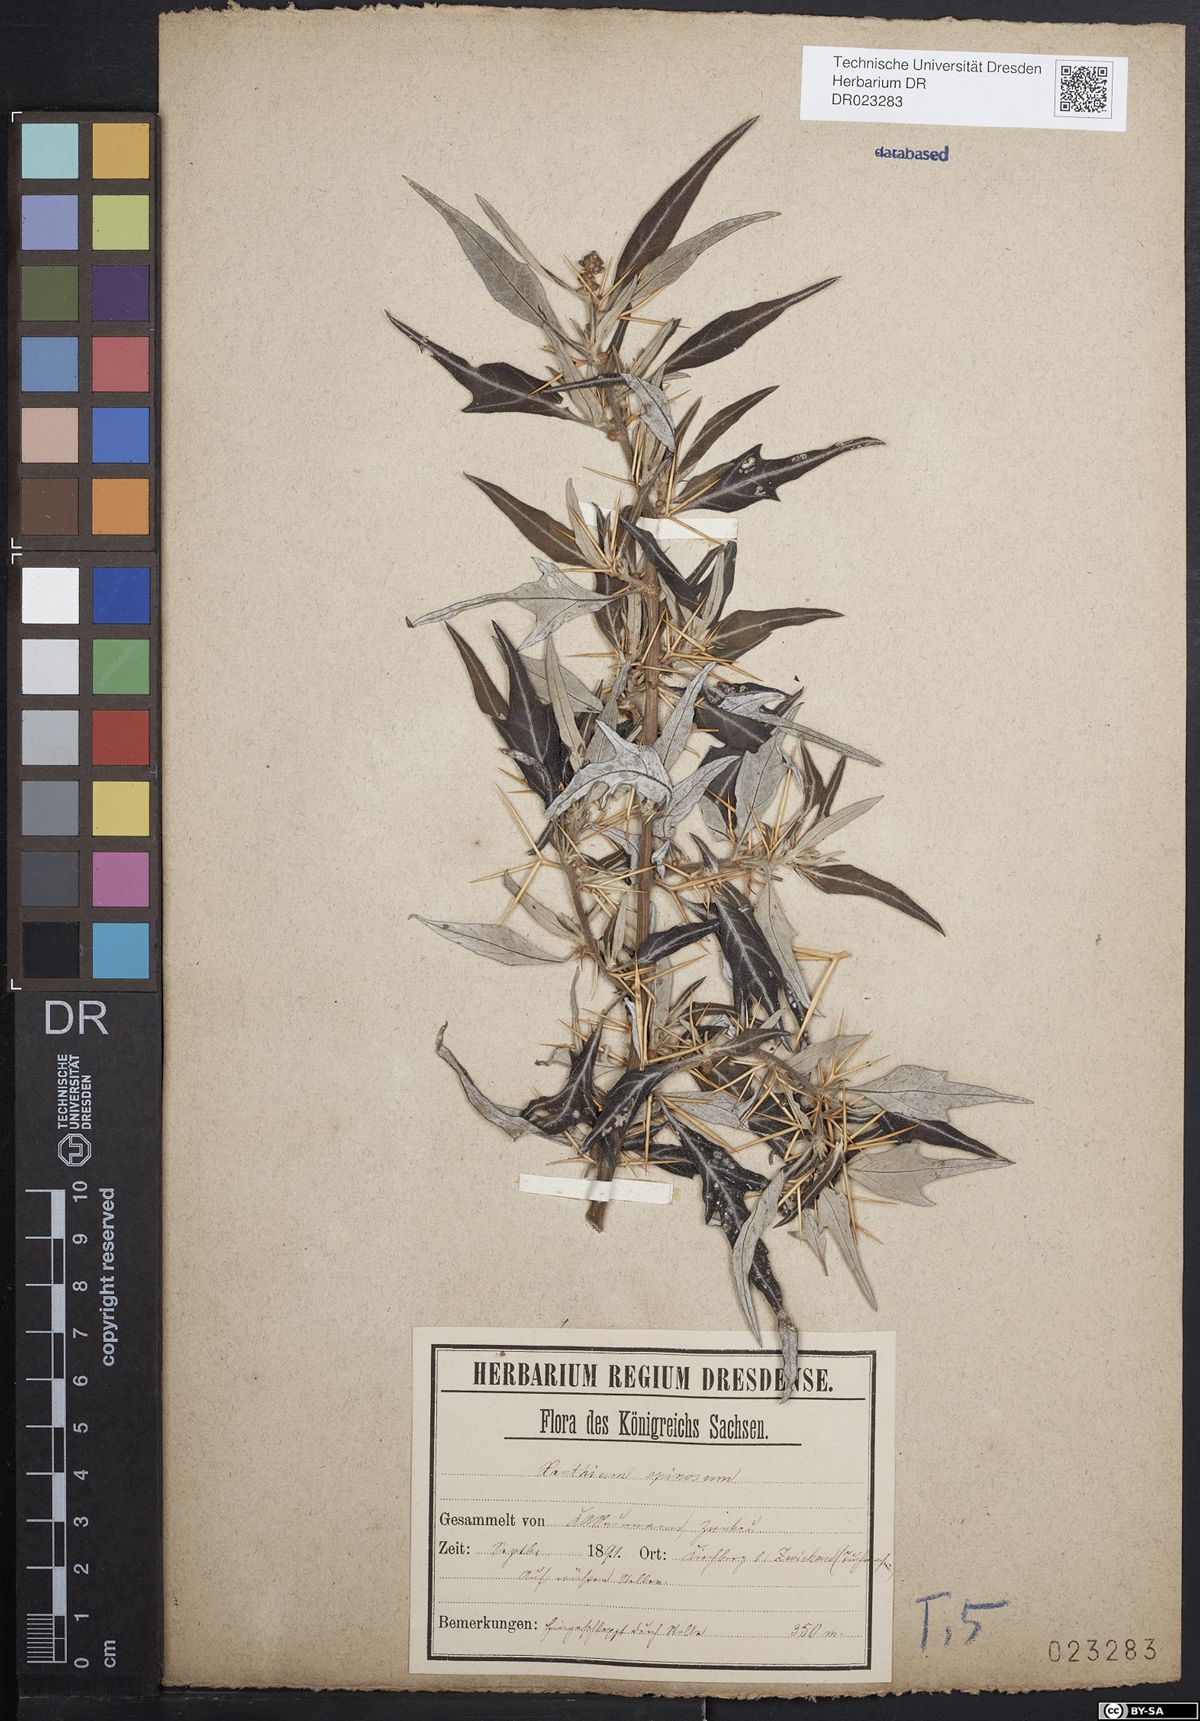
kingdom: Plantae
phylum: Tracheophyta
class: Magnoliopsida
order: Asterales
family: Asteraceae
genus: Xanthium
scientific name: Xanthium spinosum
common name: Spiny cocklebur
